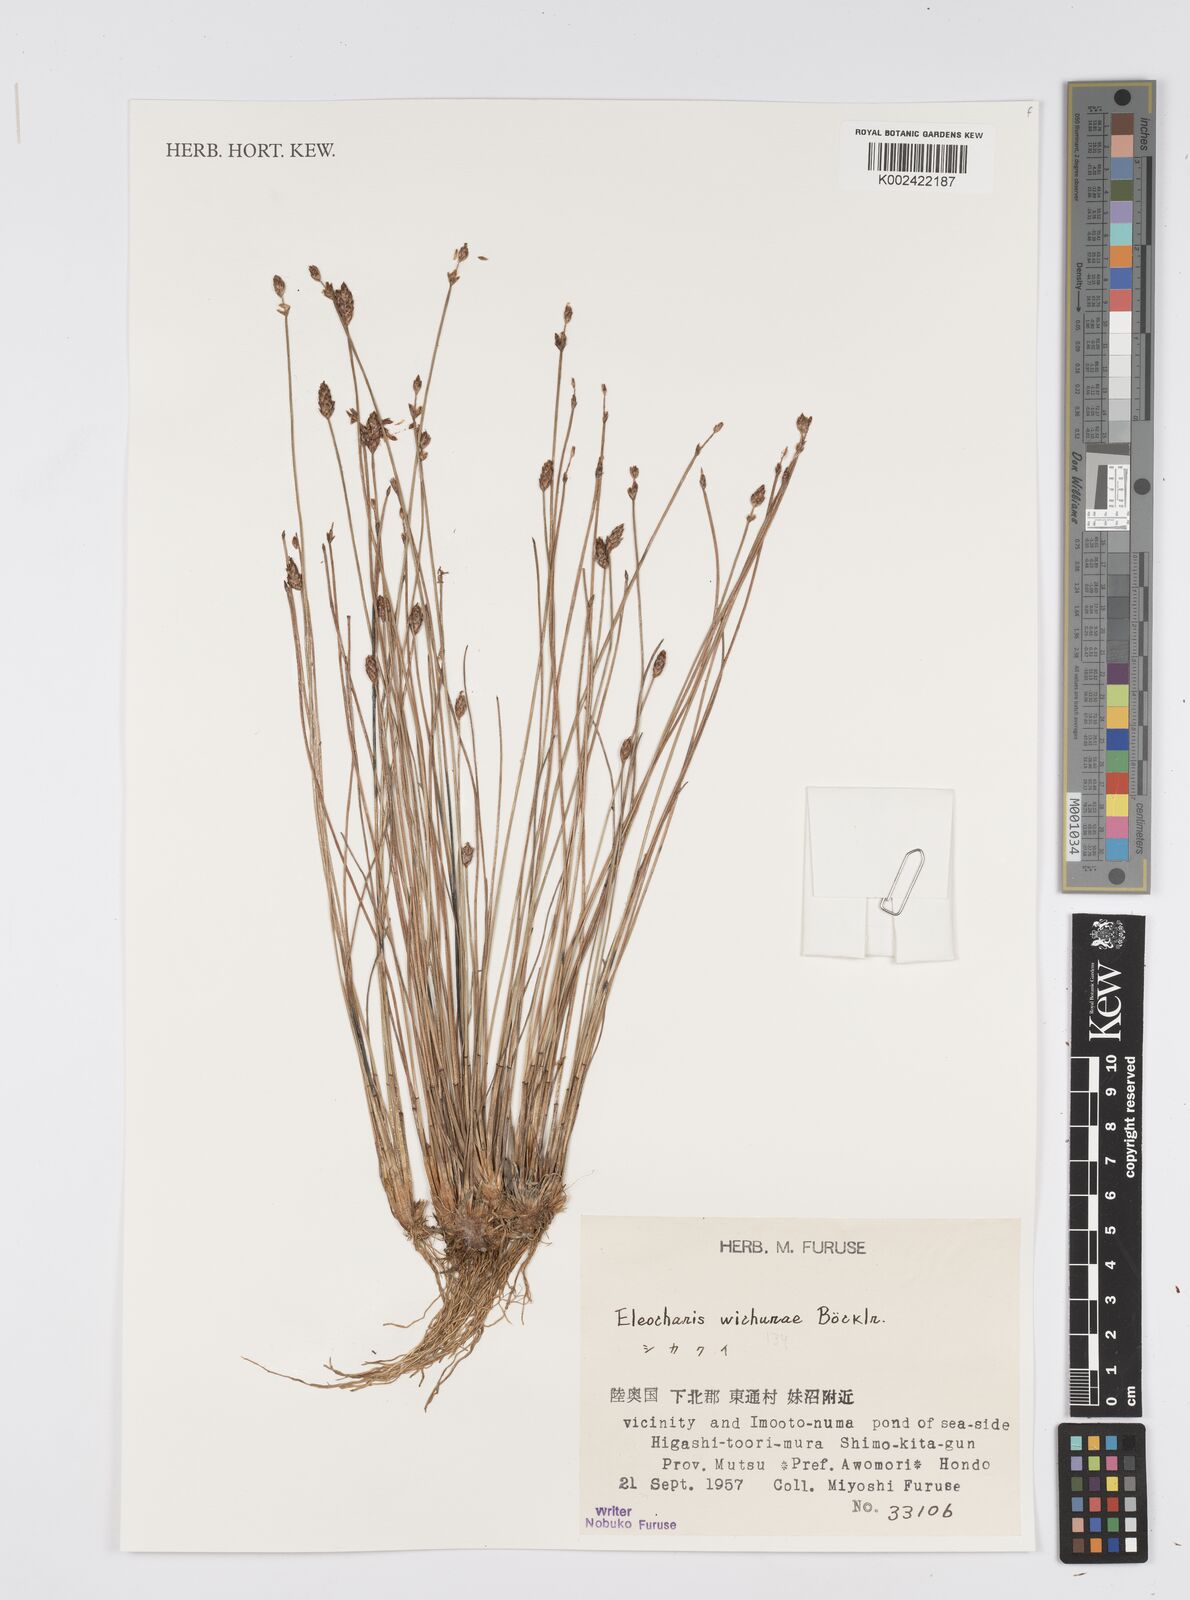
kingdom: Plantae
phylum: Tracheophyta
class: Liliopsida
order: Poales
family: Cyperaceae
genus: Eleocharis
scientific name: Eleocharis tetraquetra
